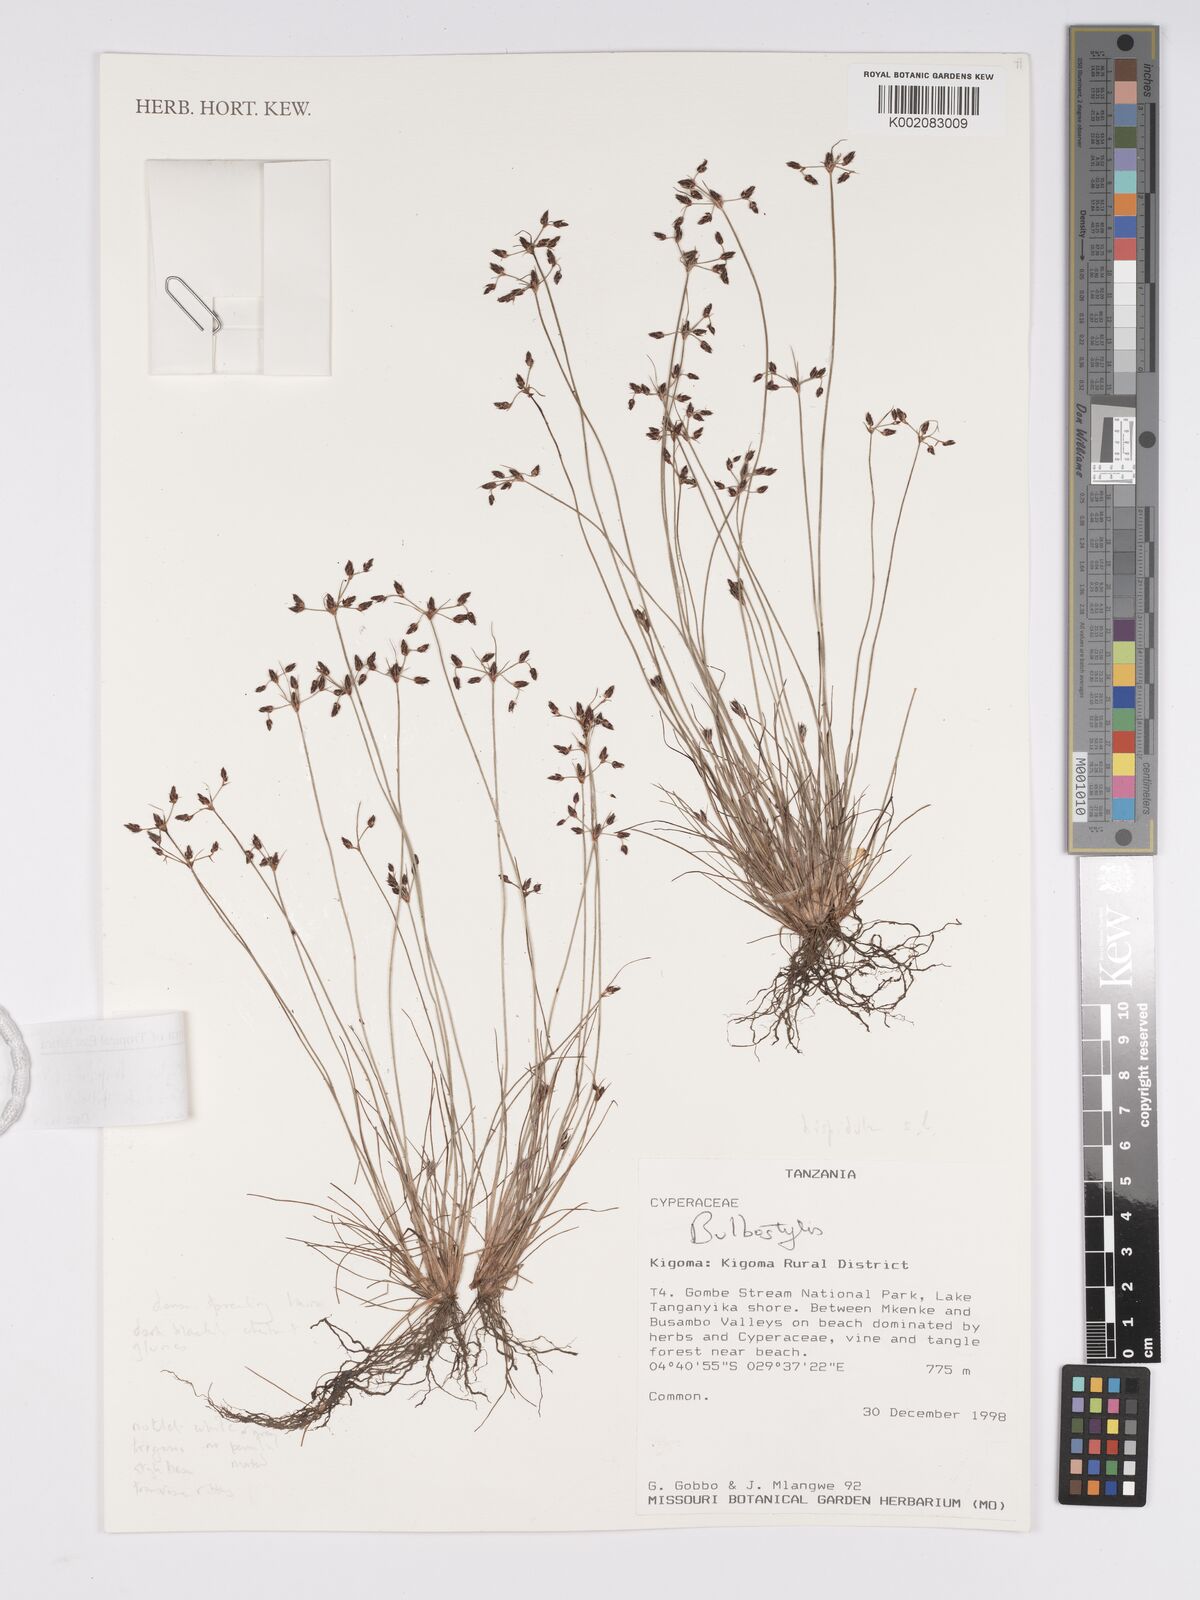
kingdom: Plantae
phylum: Tracheophyta
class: Liliopsida
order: Poales
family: Cyperaceae
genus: Bulbostylis
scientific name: Bulbostylis hispidula
